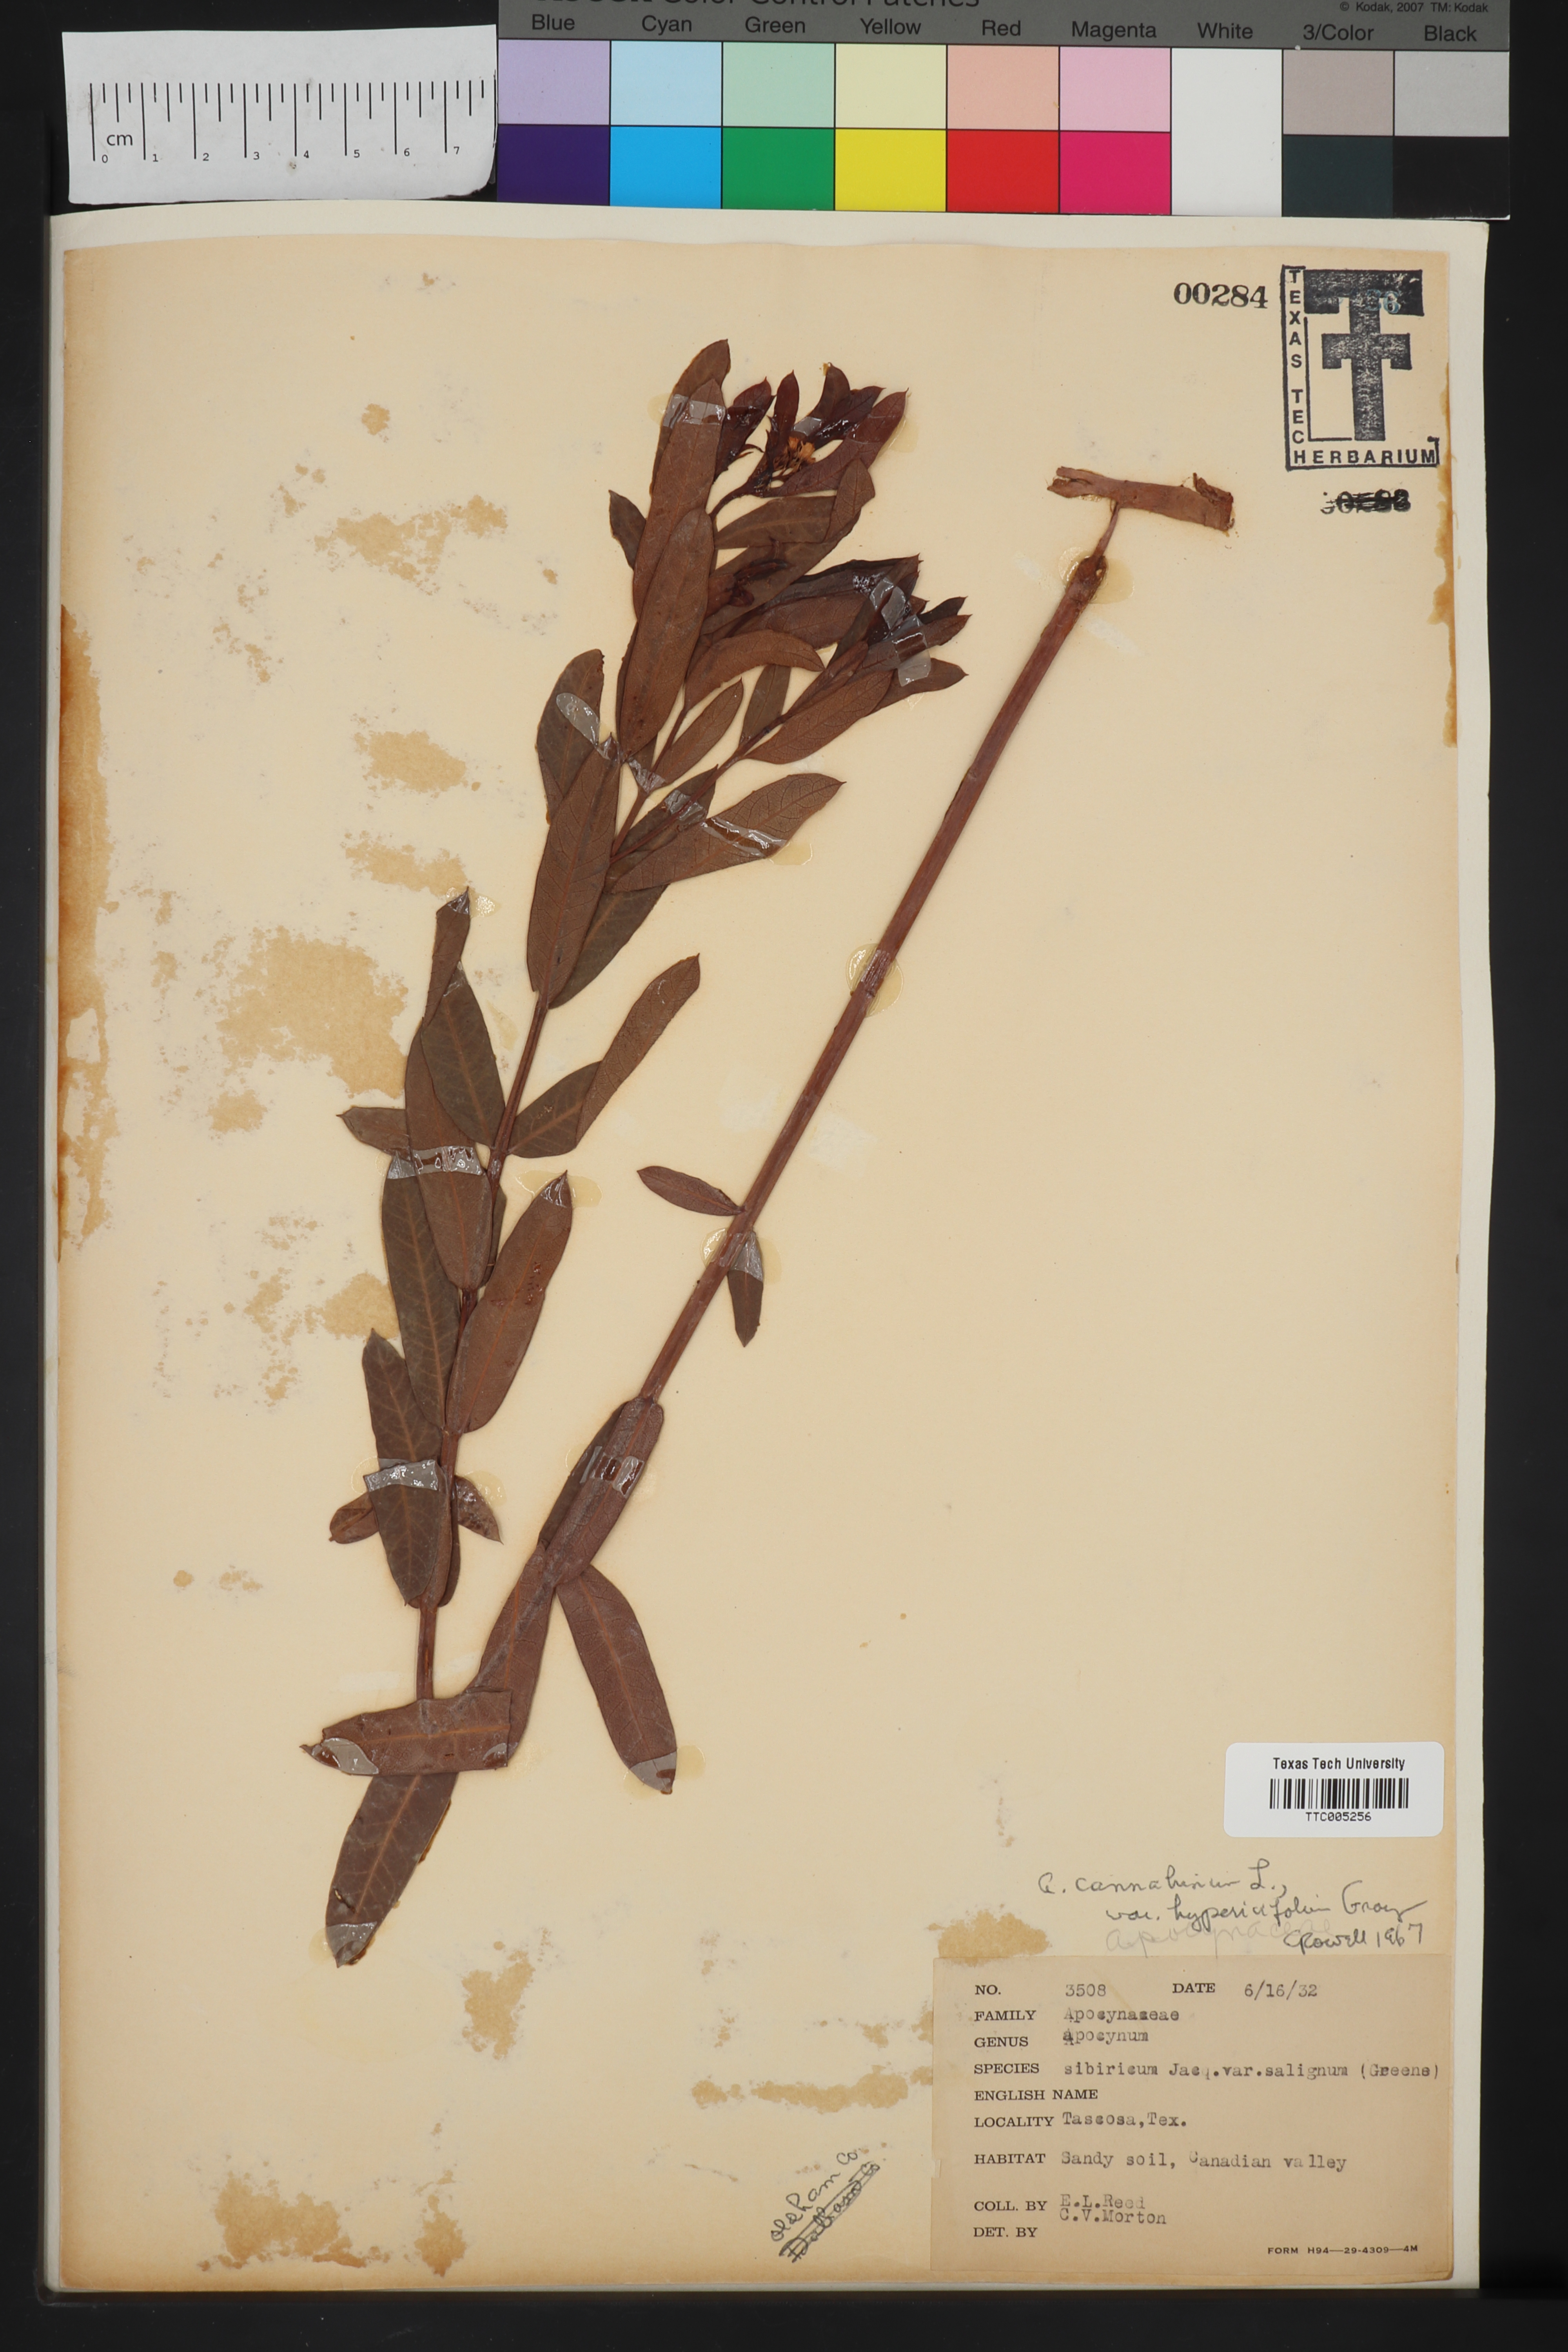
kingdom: Plantae
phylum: Tracheophyta
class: Magnoliopsida
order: Gentianales
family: Apocynaceae
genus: Apocynum
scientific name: Apocynum cannabinum
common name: Hemp dogbane
